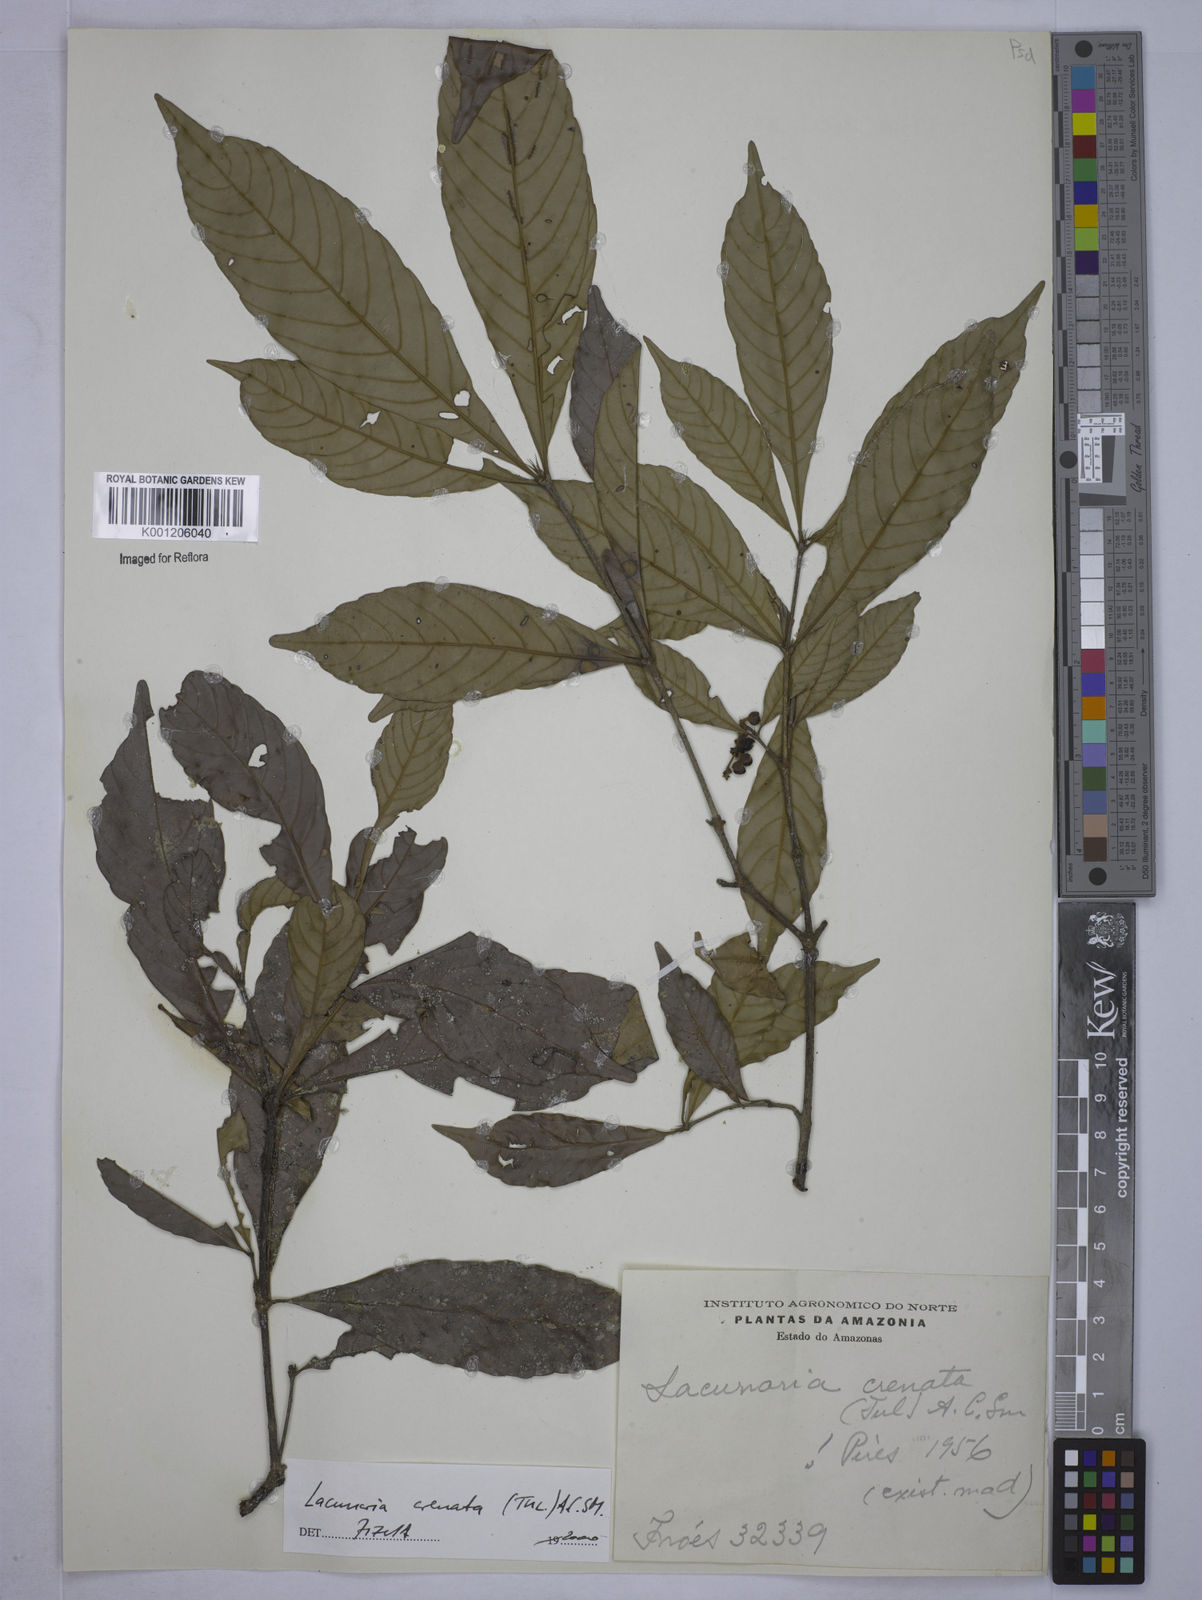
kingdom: Plantae
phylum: Tracheophyta
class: Magnoliopsida
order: Malpighiales
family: Quiinaceae
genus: Lacunaria
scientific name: Lacunaria crenata
